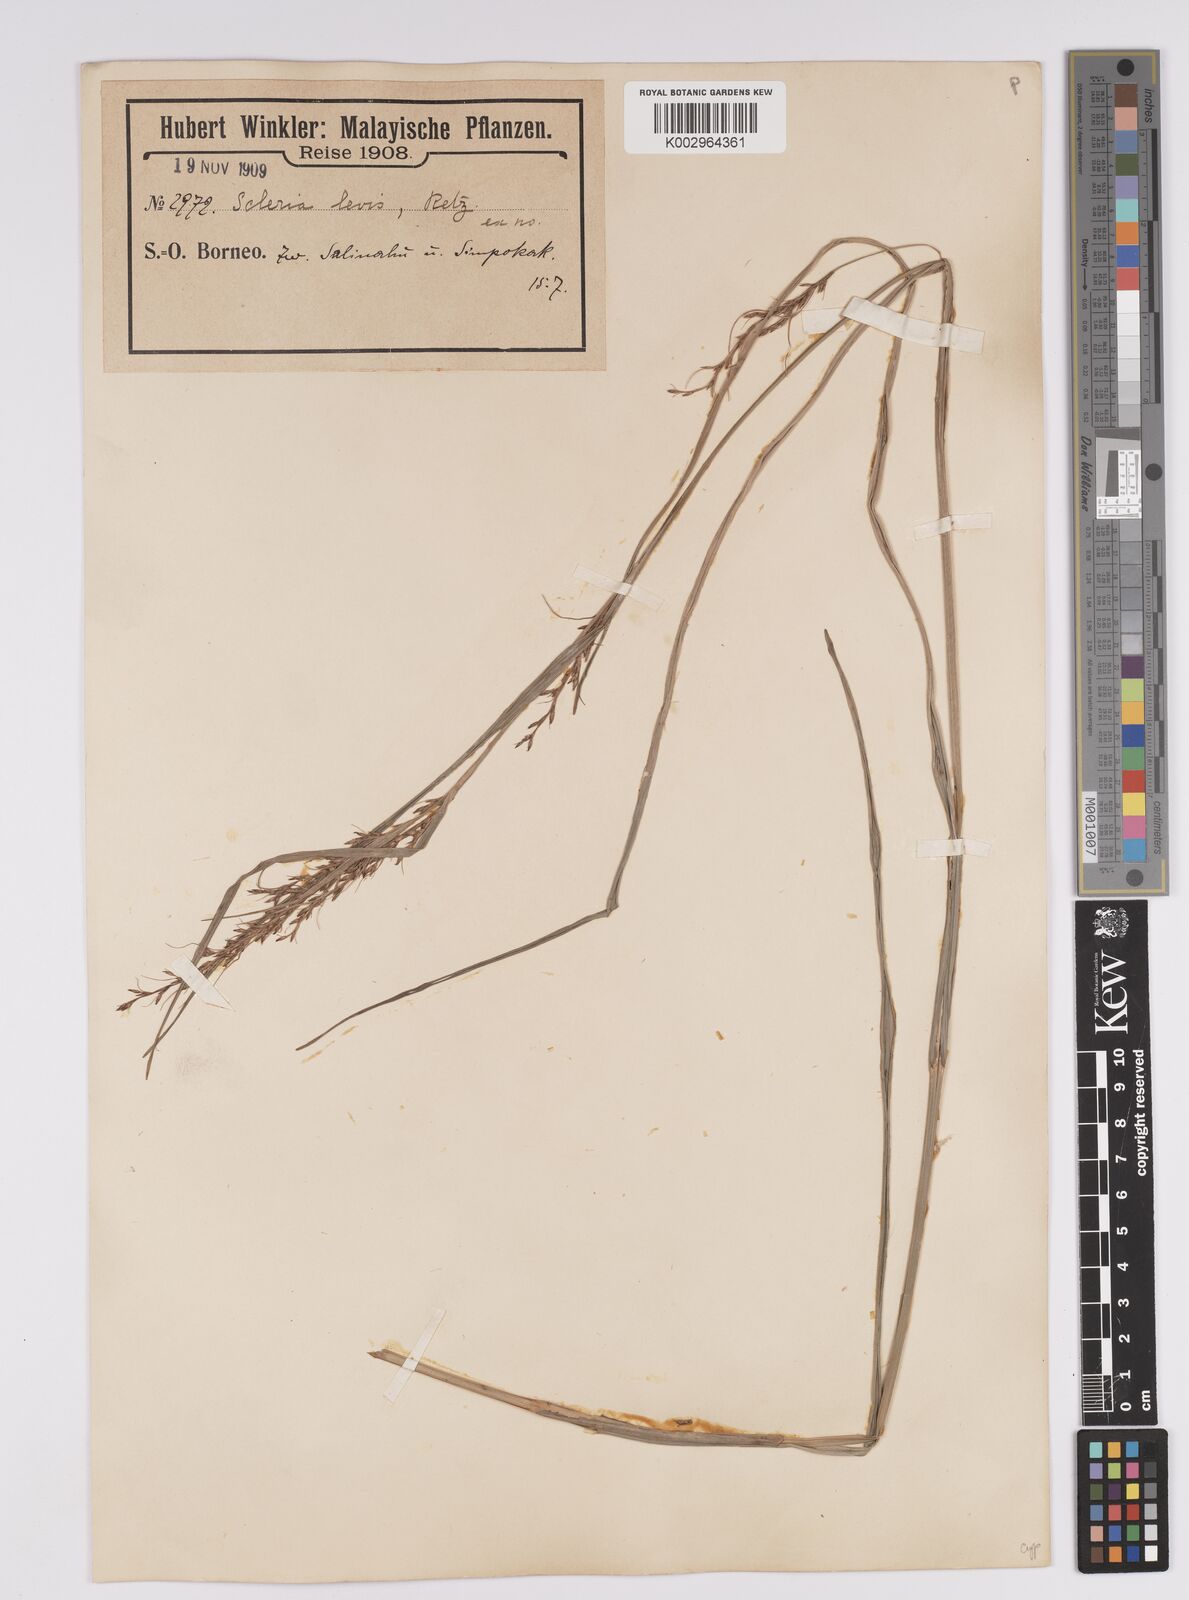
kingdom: Plantae
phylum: Tracheophyta
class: Liliopsida
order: Poales
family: Cyperaceae
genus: Scleria
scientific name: Scleria levis
